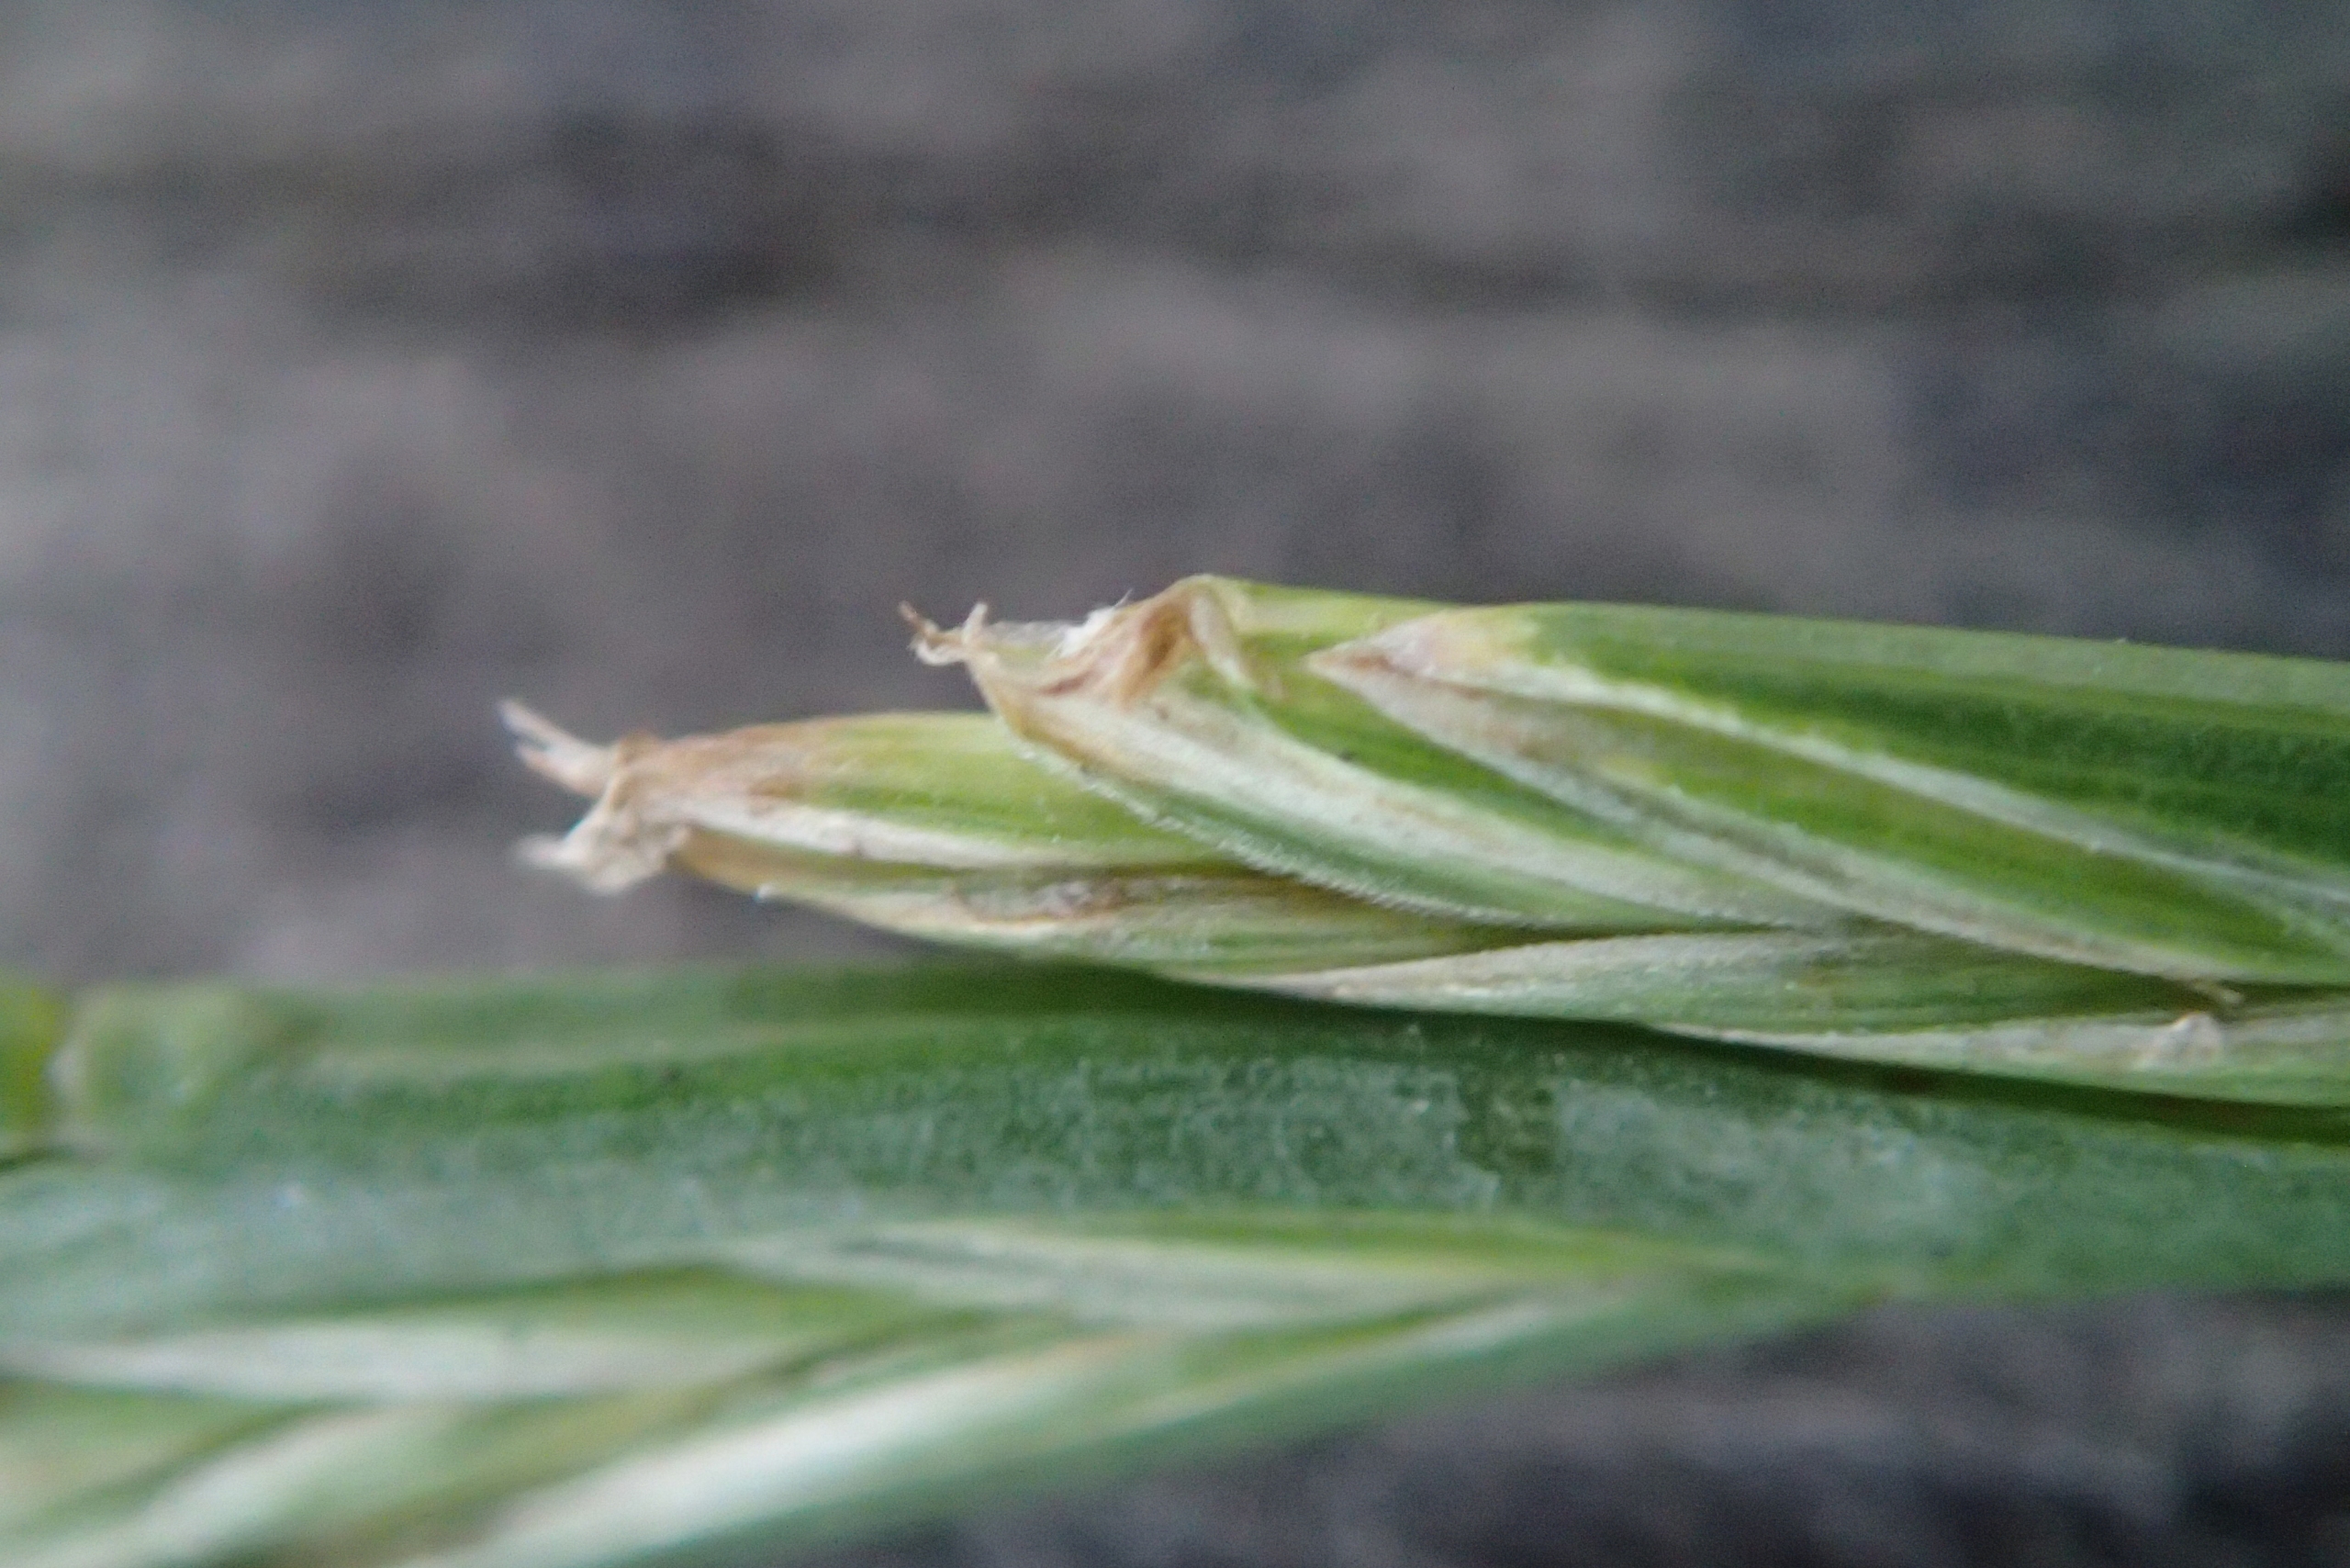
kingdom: Plantae
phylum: Tracheophyta
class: Liliopsida
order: Poales
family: Poaceae
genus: Lolium
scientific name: Lolium perenne
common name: Almindelig rajgræs
